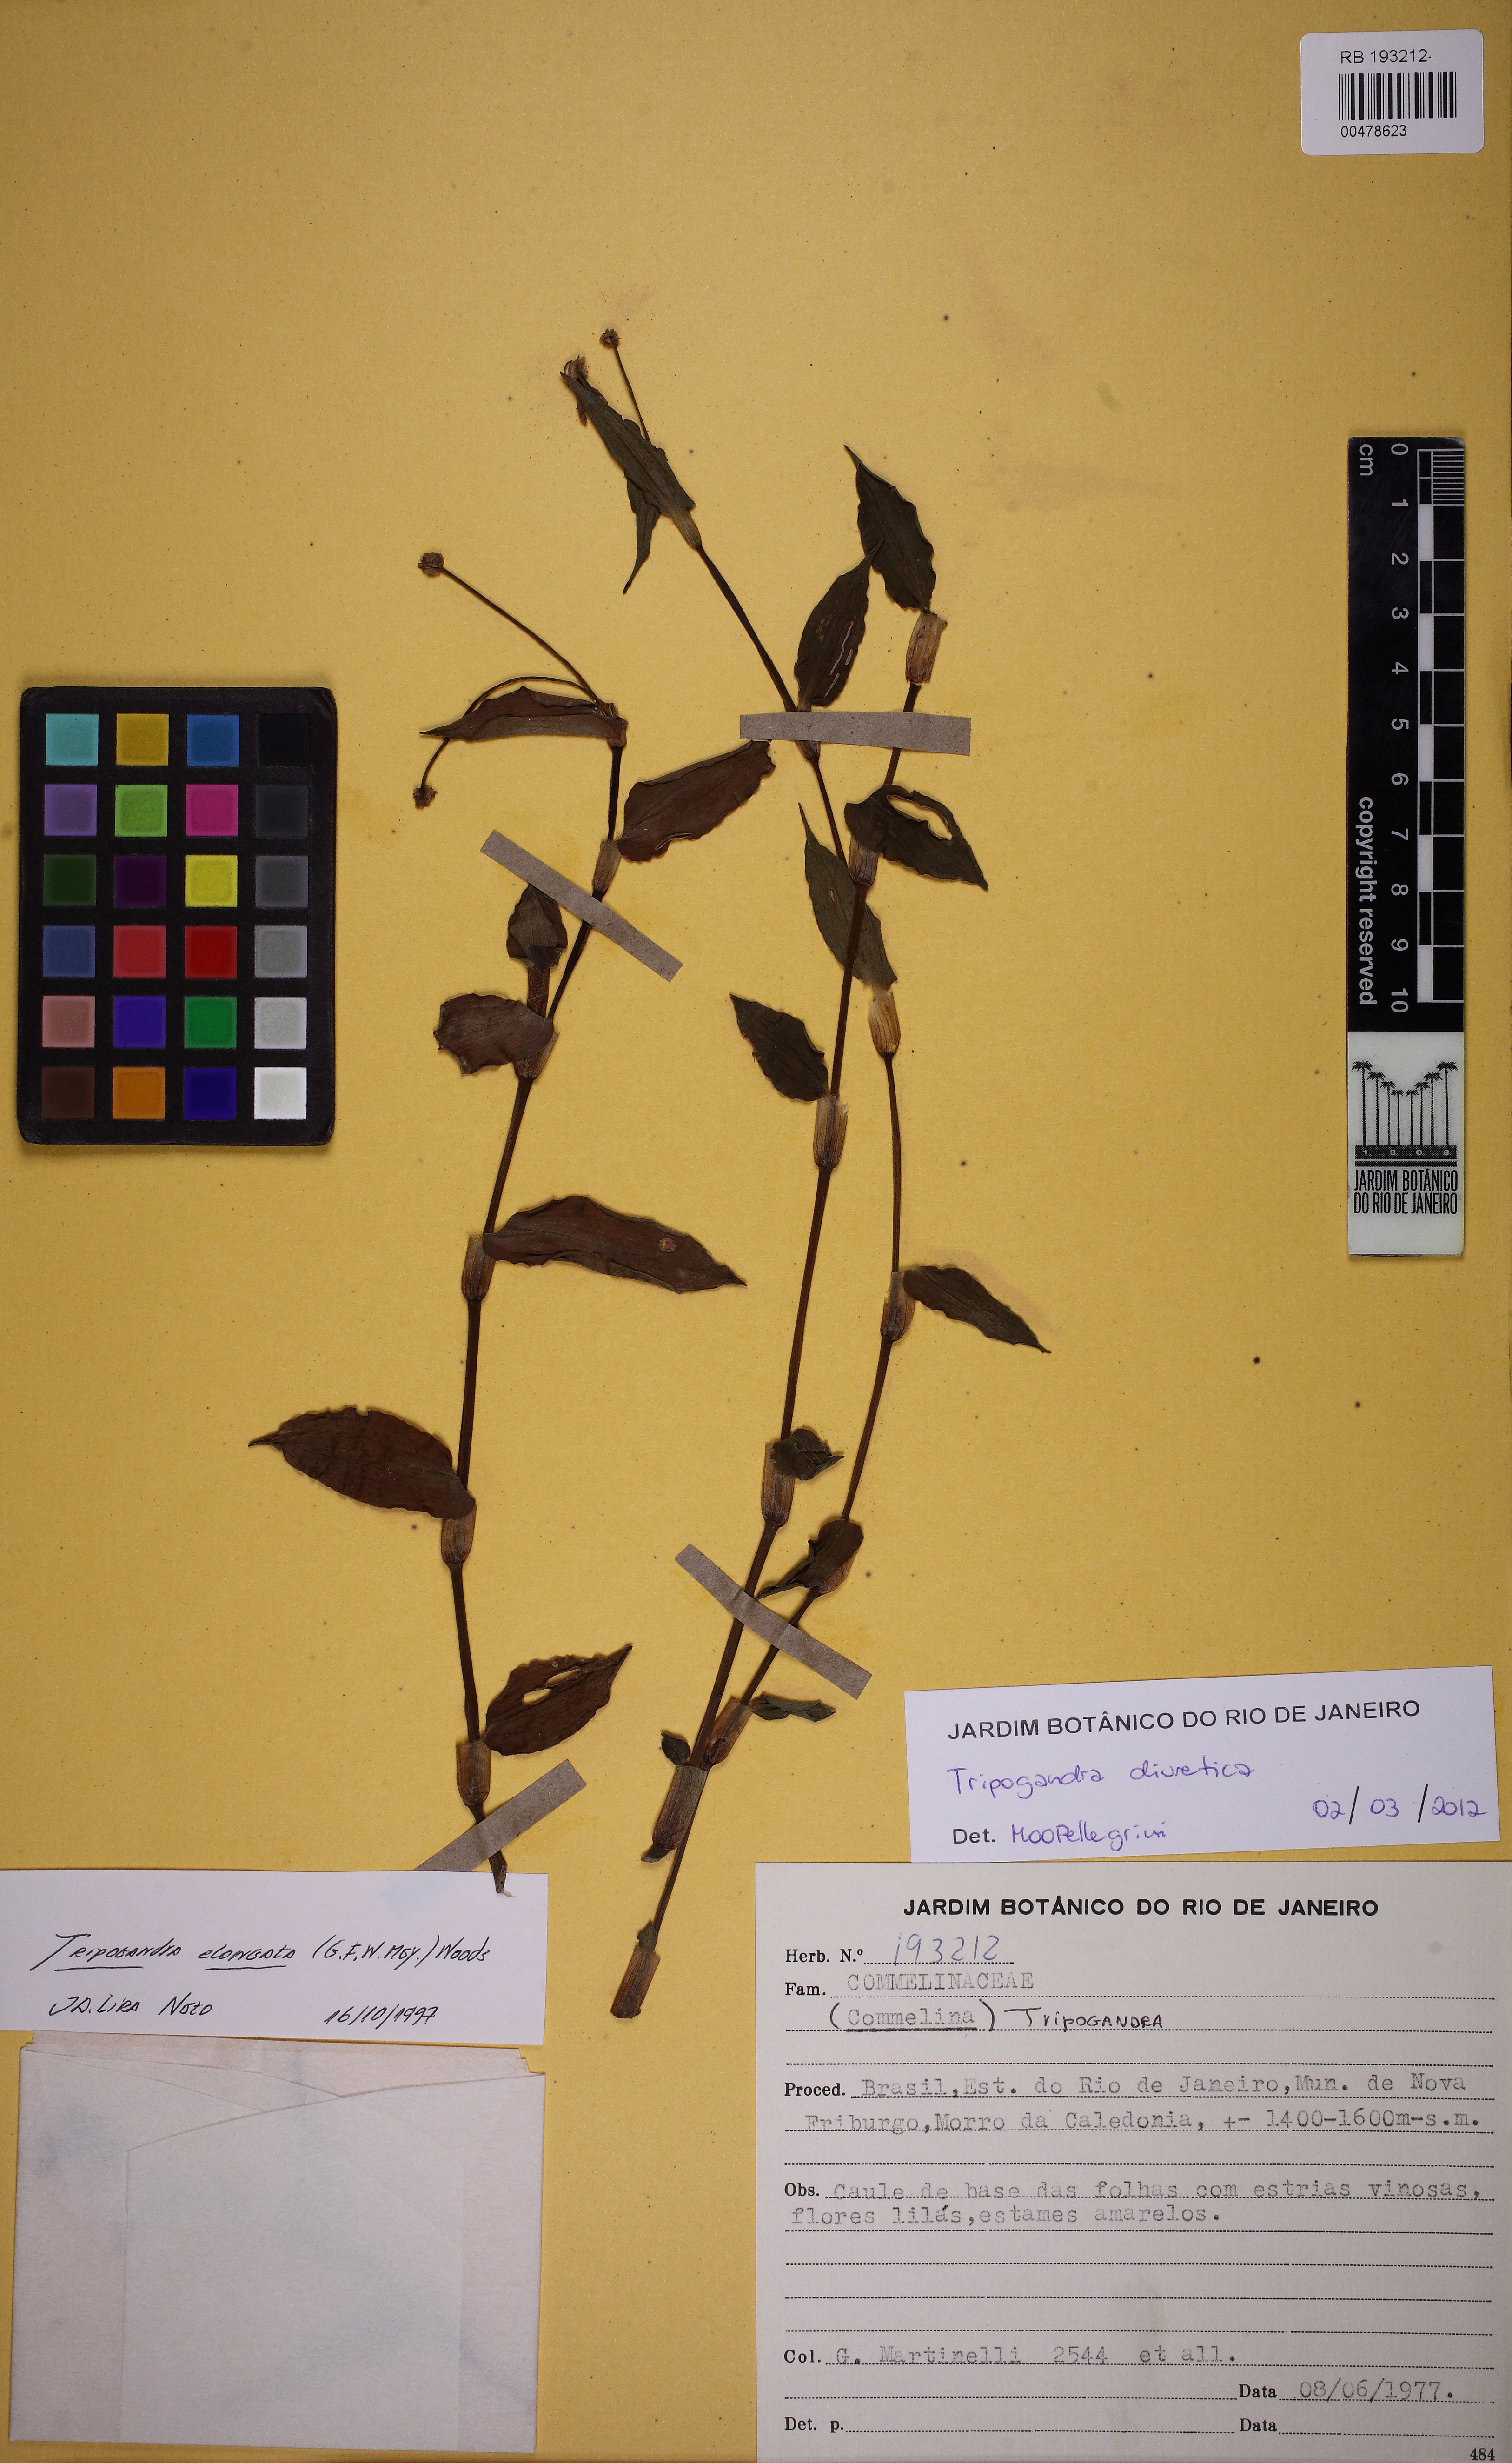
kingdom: Plantae
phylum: Tracheophyta
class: Liliopsida
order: Commelinales
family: Commelinaceae
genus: Callisia
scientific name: Callisia diuretica
